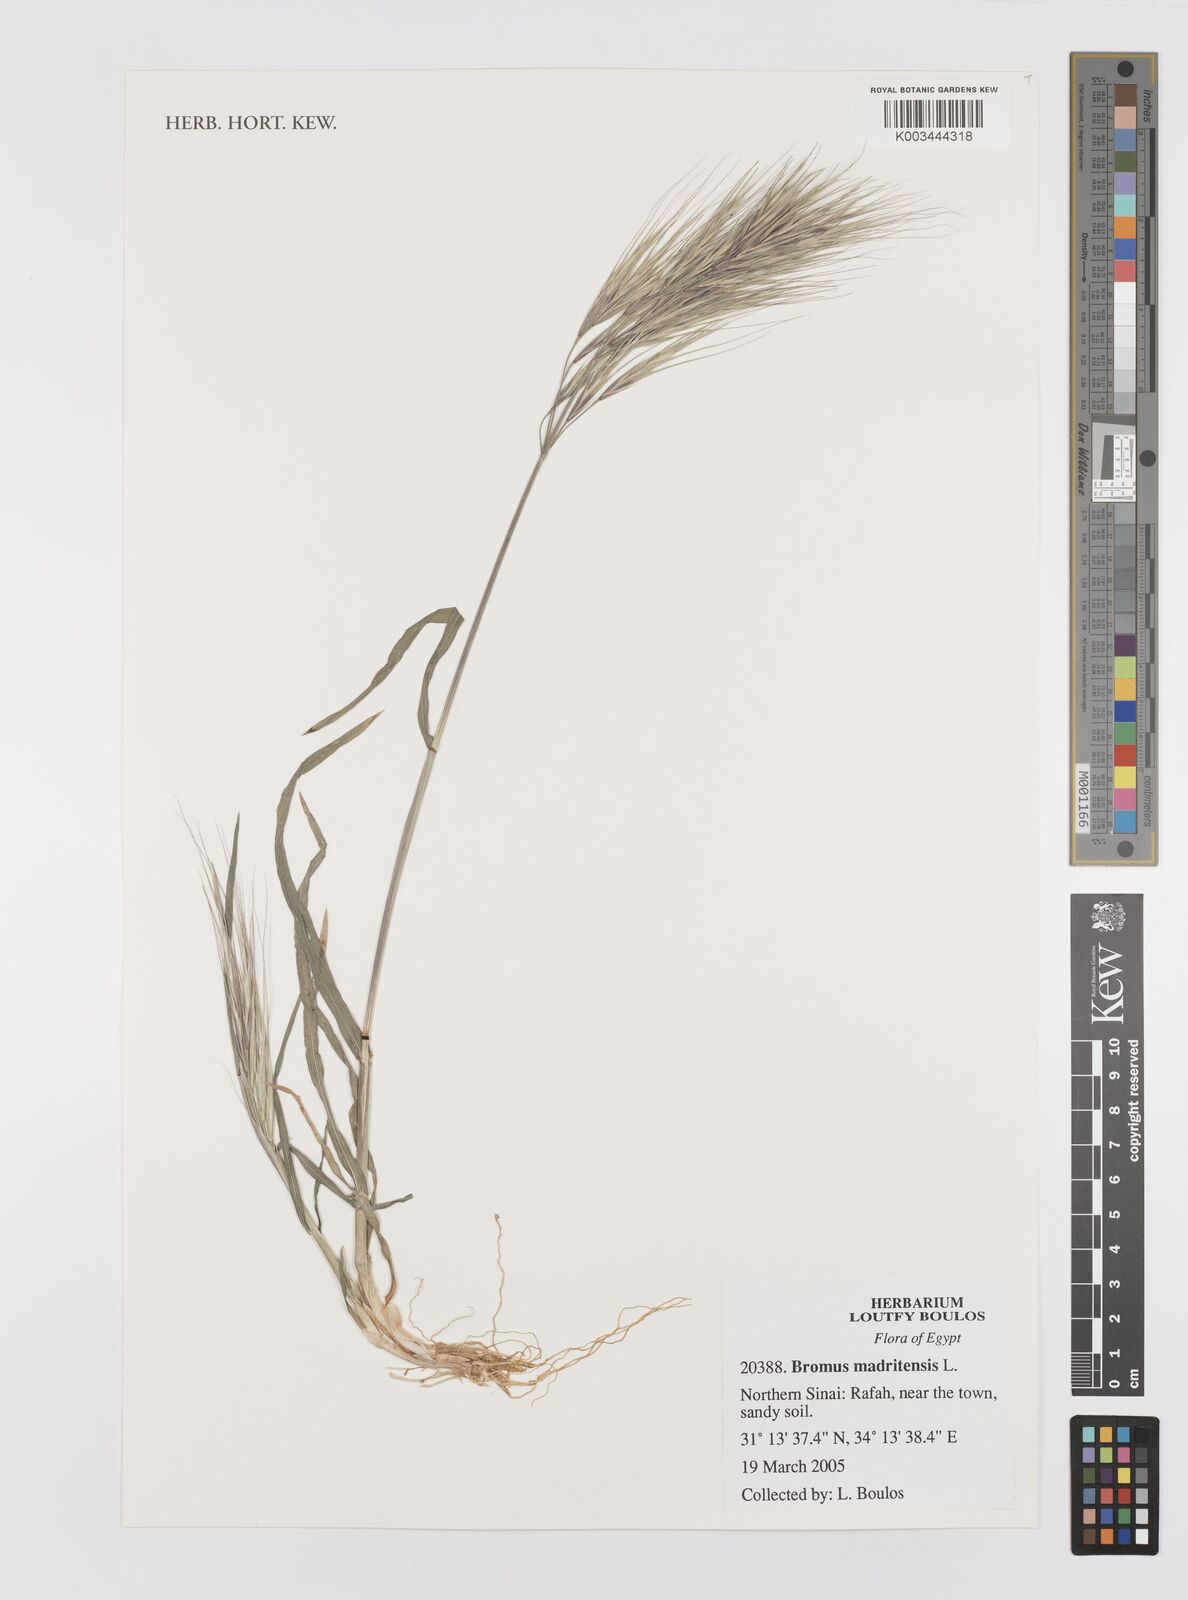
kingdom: Plantae
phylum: Tracheophyta
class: Liliopsida
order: Poales
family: Poaceae
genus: Bromus
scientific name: Bromus madritensis
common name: Compact brome
